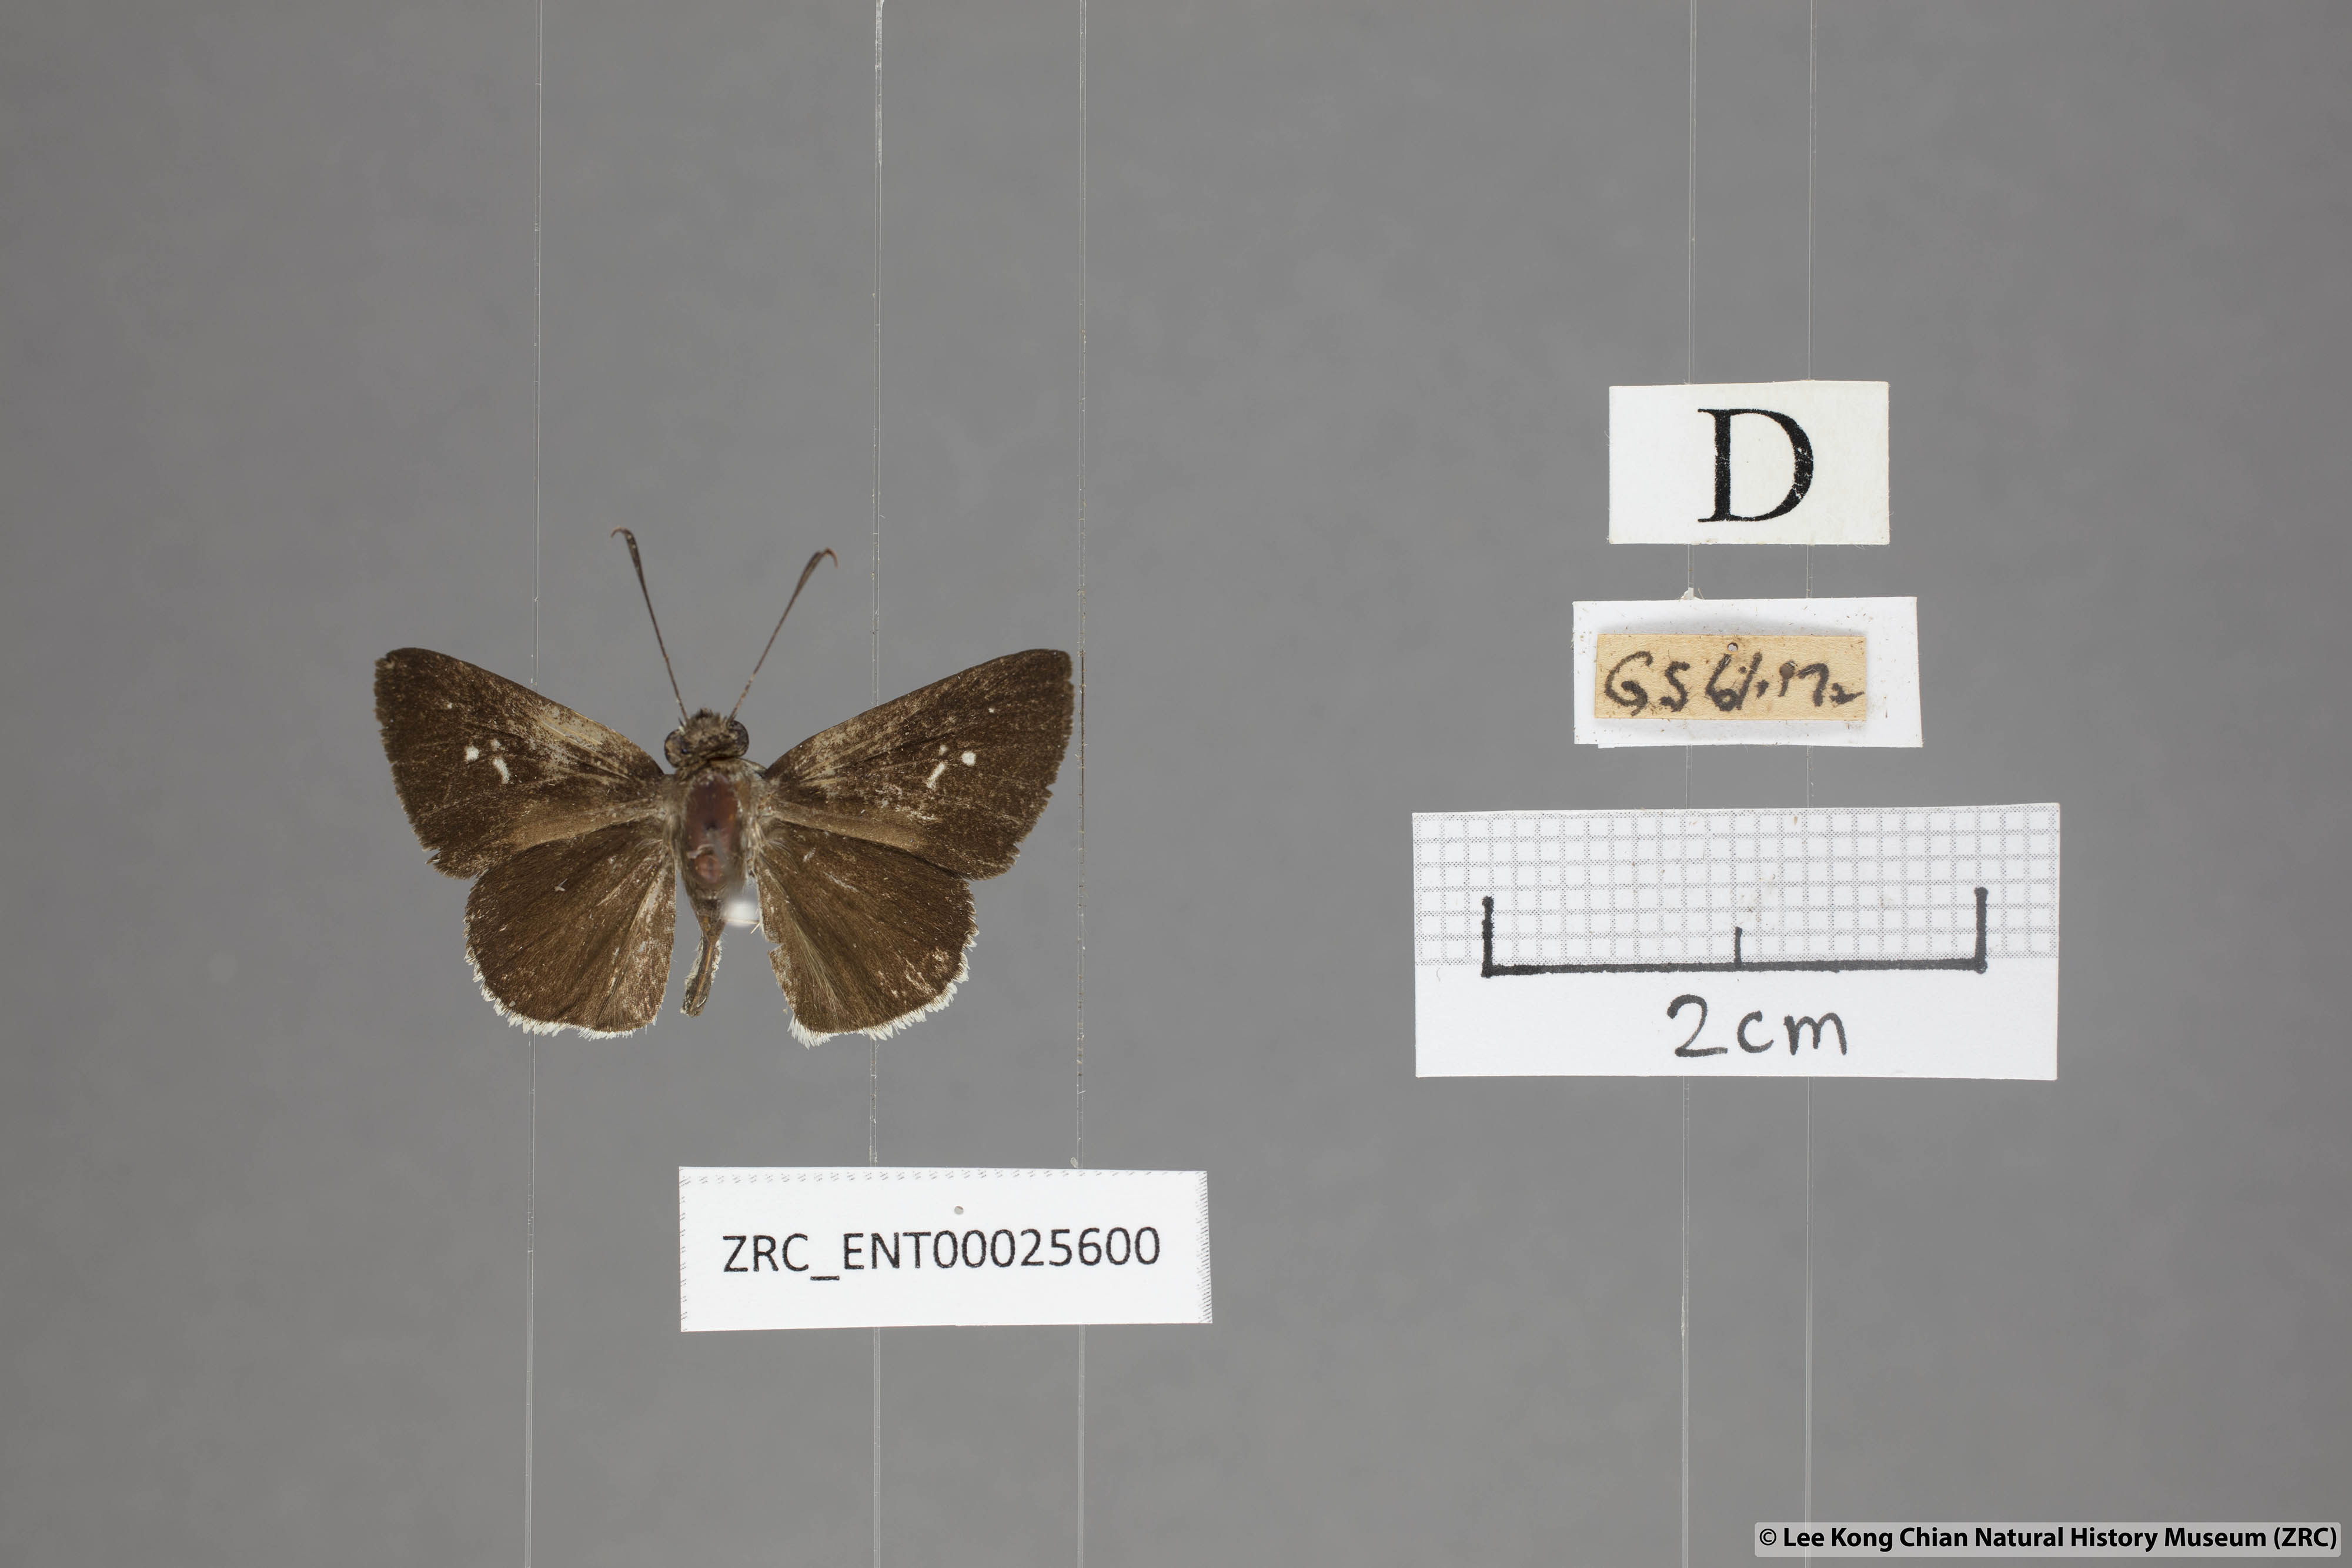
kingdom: Animalia
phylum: Arthropoda
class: Insecta
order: Lepidoptera
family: Hesperiidae
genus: Suastus
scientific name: Suastus minuta
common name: Small palm bob
